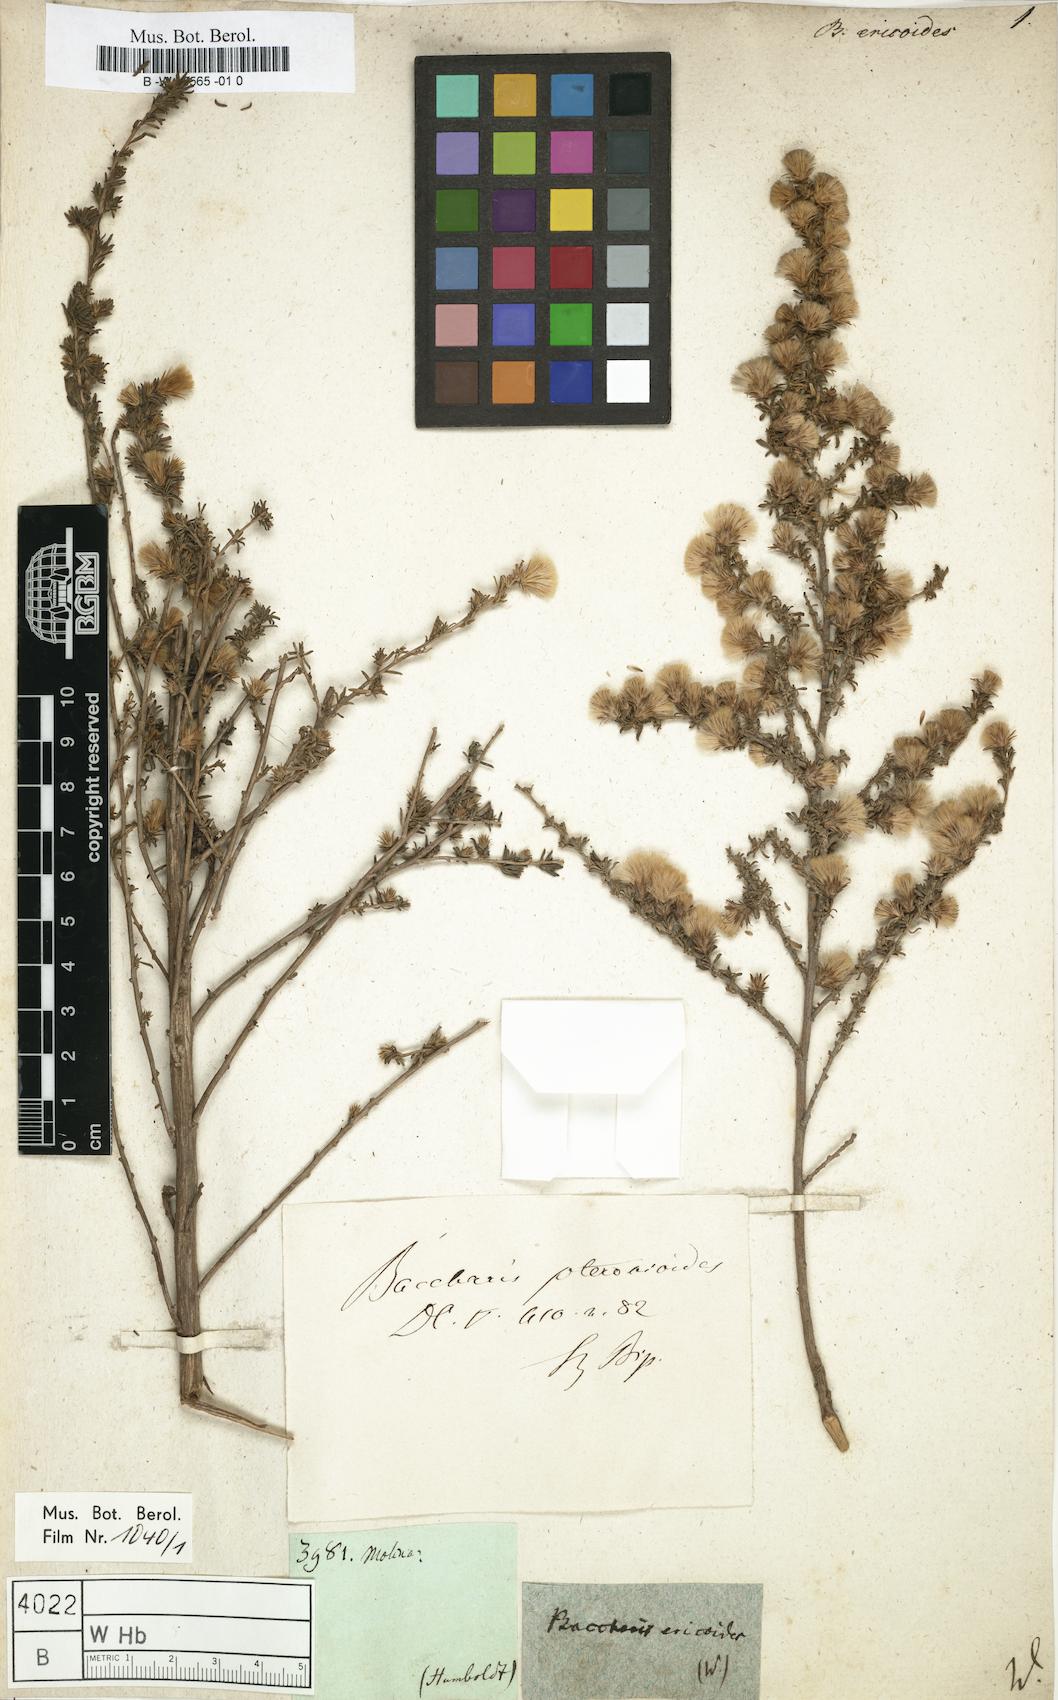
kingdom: Plantae
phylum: Tracheophyta
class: Magnoliopsida
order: Asterales
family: Asteraceae
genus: Diplostephium
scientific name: Diplostephium ericoides
